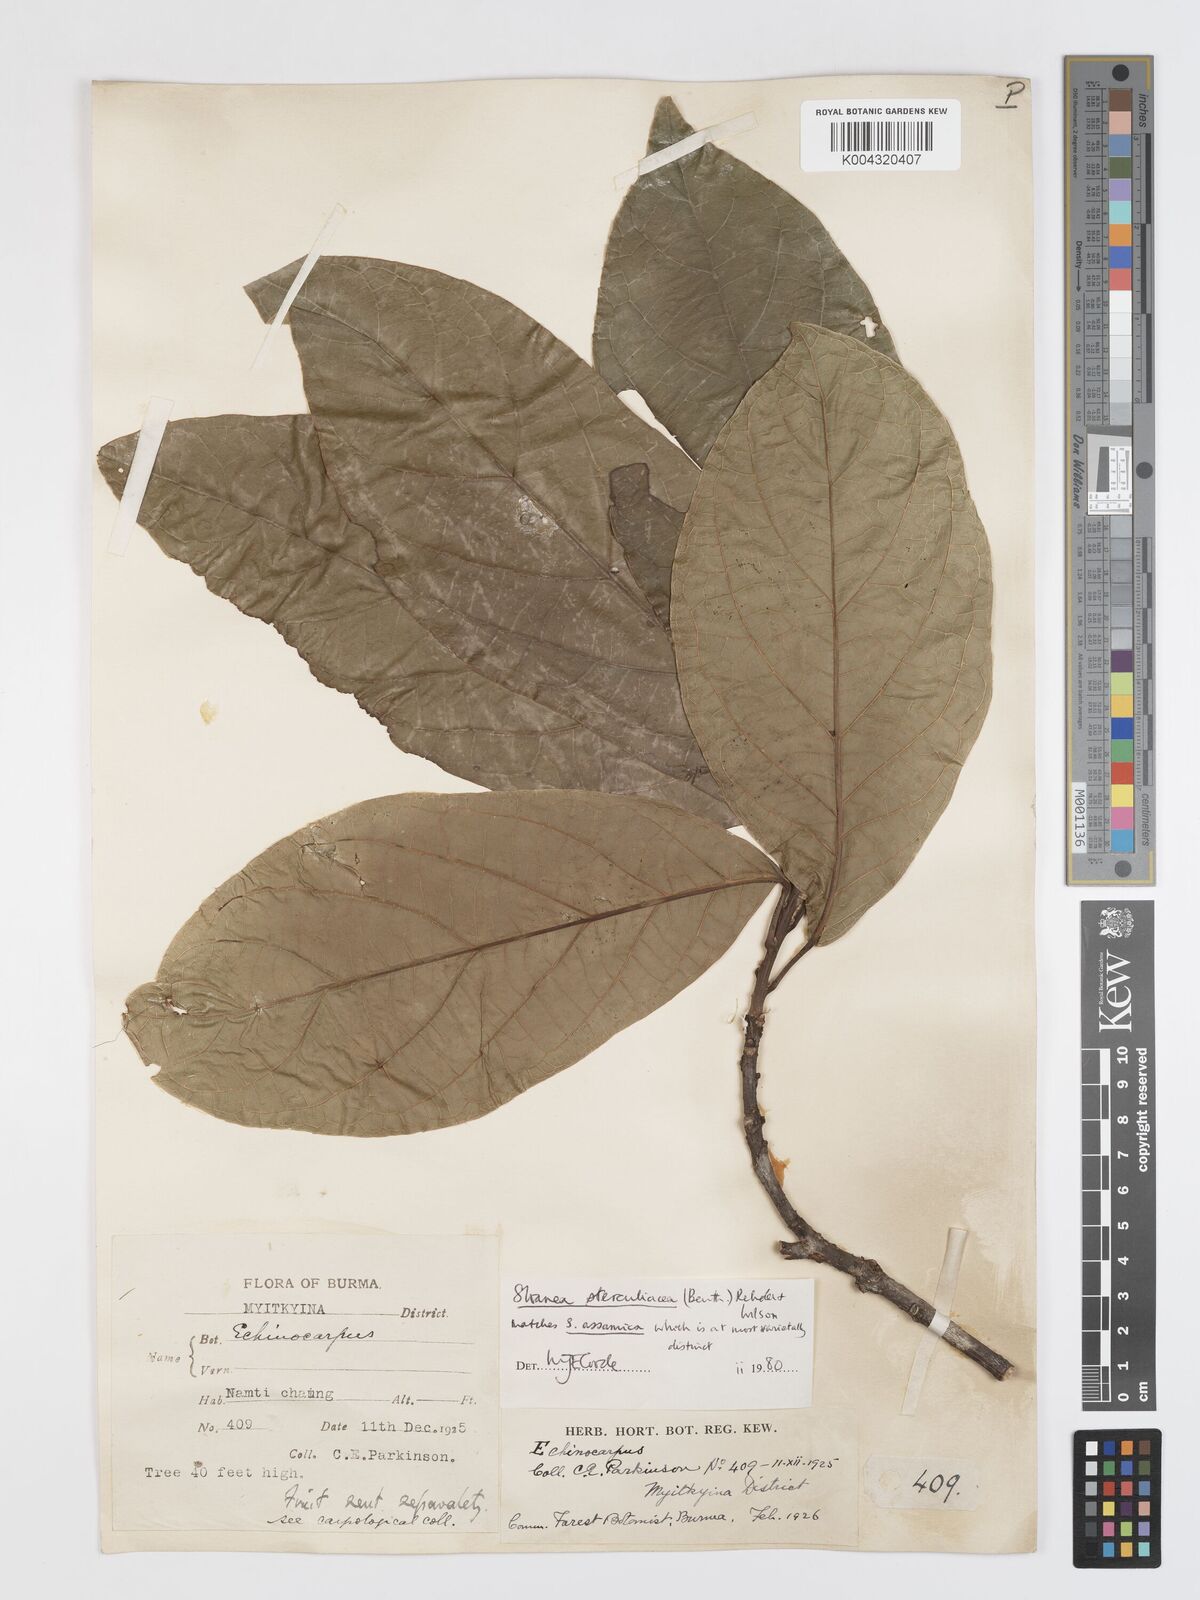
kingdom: Plantae
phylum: Tracheophyta
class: Magnoliopsida
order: Oxalidales
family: Elaeocarpaceae
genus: Sloanea
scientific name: Sloanea sterculiacea
